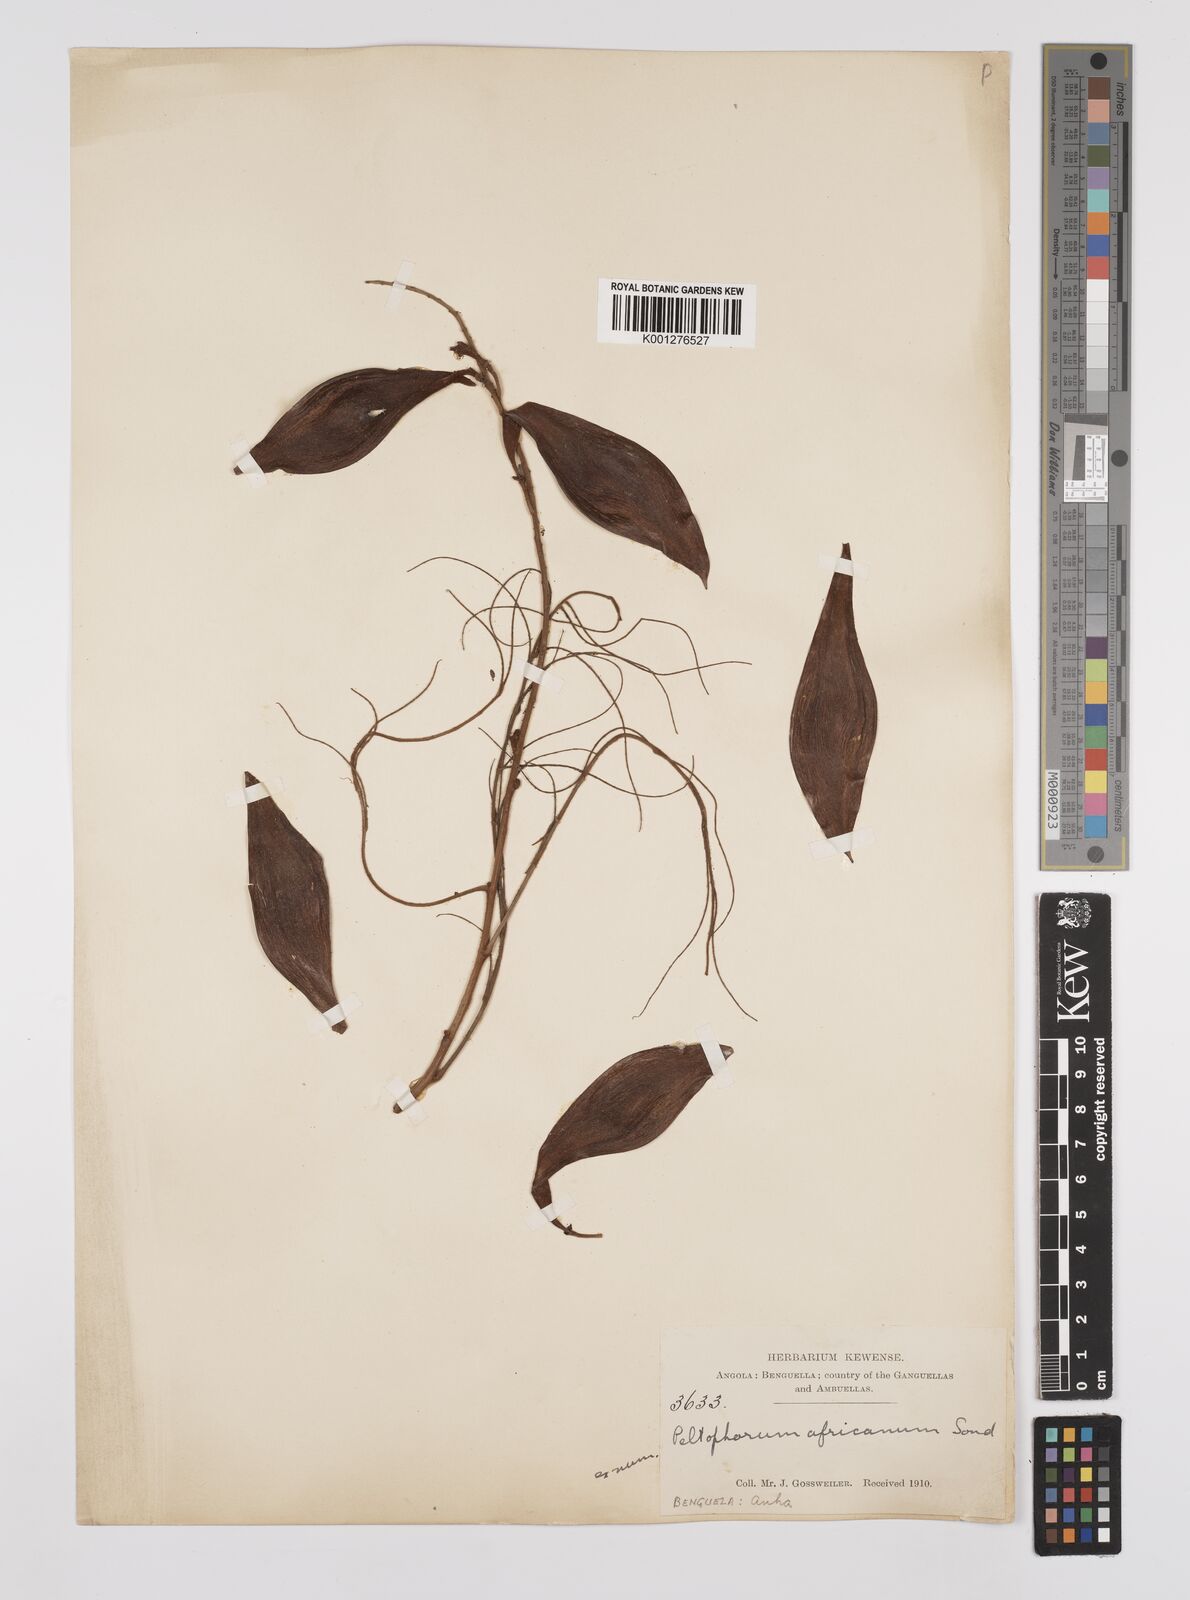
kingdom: Plantae
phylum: Tracheophyta
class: Magnoliopsida
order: Fabales
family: Fabaceae
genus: Peltophorum
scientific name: Peltophorum africanum
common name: African black wattle
